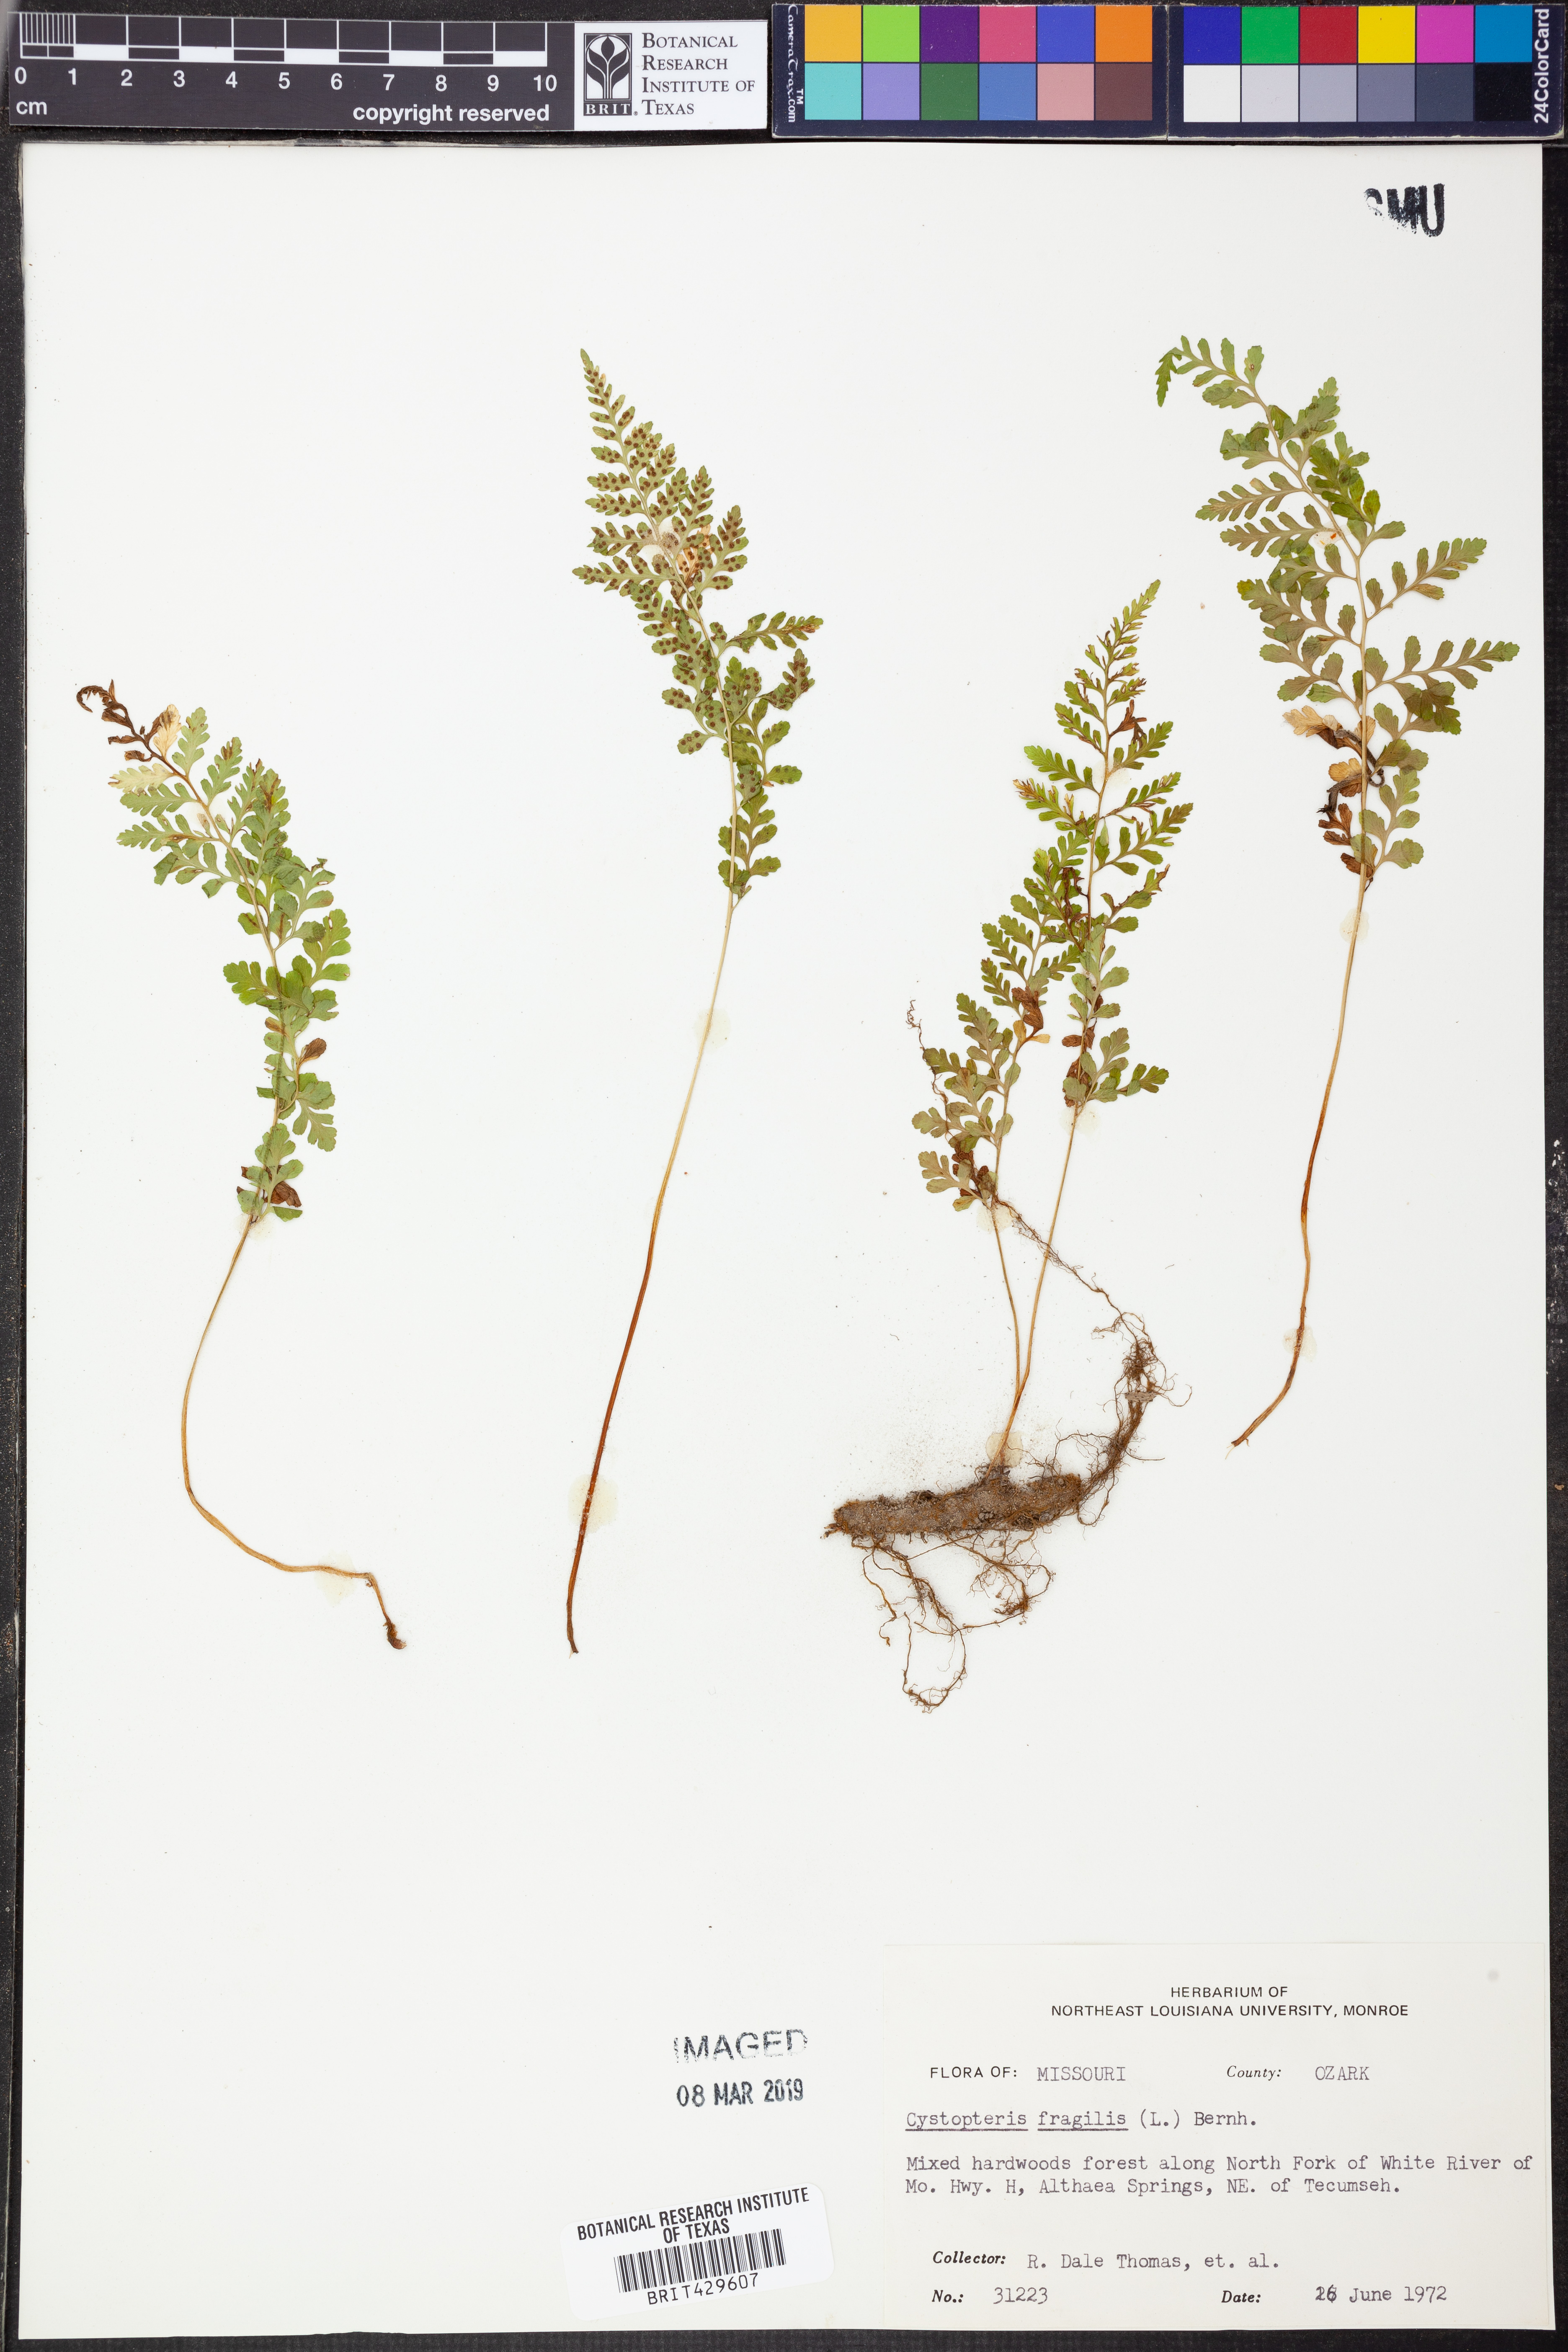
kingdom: Plantae
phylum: Tracheophyta
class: Polypodiopsida
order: Polypodiales
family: Cystopteridaceae
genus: Cystopteris
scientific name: Cystopteris fragilis
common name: Brittle bladder fern
